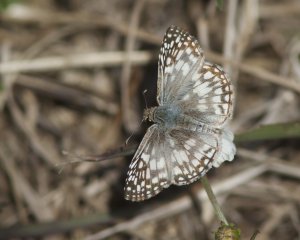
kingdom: Animalia
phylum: Arthropoda
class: Insecta
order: Lepidoptera
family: Hesperiidae
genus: Pyrgus
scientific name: Pyrgus oileus
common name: Tropical Checkered-Skipper
